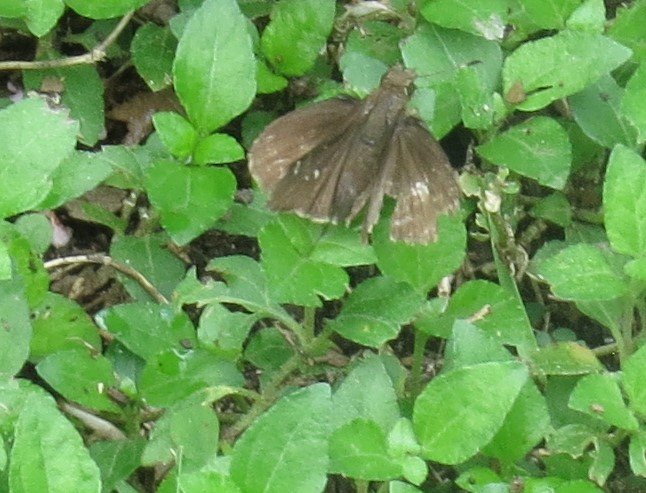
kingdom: Animalia
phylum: Arthropoda
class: Insecta
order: Lepidoptera
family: Hesperiidae
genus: Lerema
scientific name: Lerema accius
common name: Clouded Skipper
